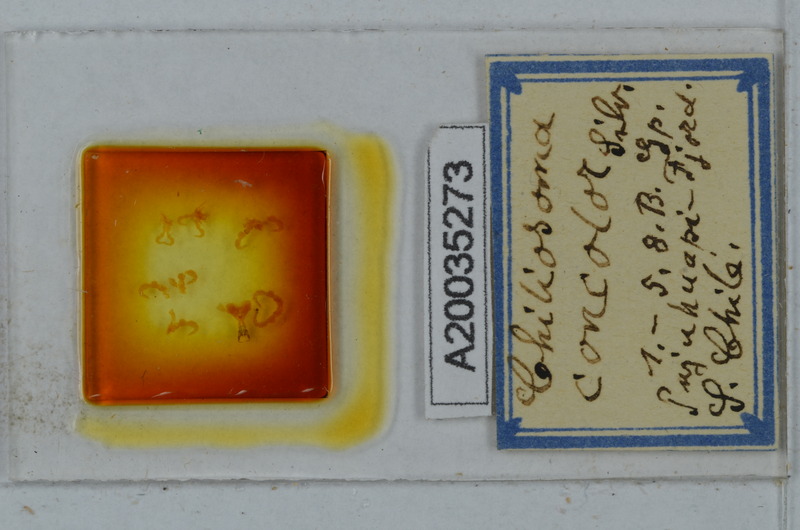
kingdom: Animalia
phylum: Arthropoda
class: Diplopoda
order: Polydesmida
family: Dalodesmidae
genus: Tsagonus
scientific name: Tsagonus muermo
